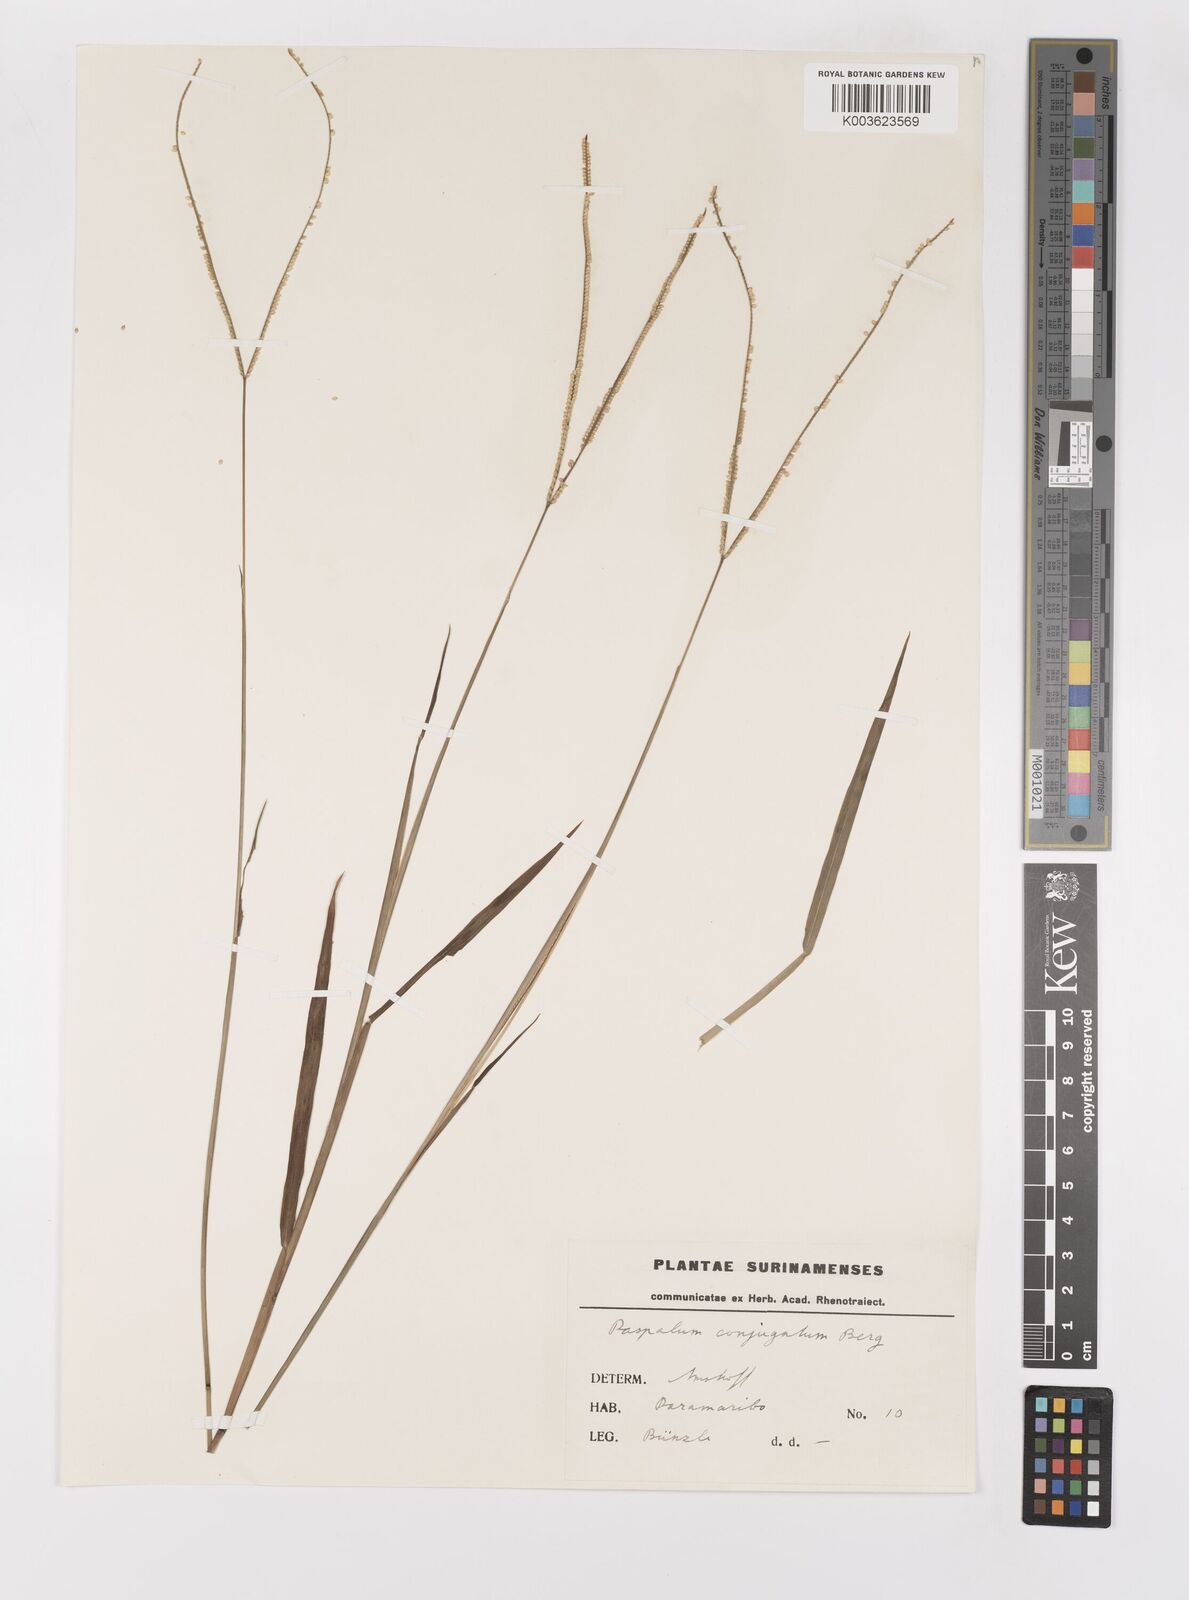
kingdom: Plantae
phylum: Tracheophyta
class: Liliopsida
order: Poales
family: Poaceae
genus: Paspalum
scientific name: Paspalum conjugatum
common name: Hilograss
